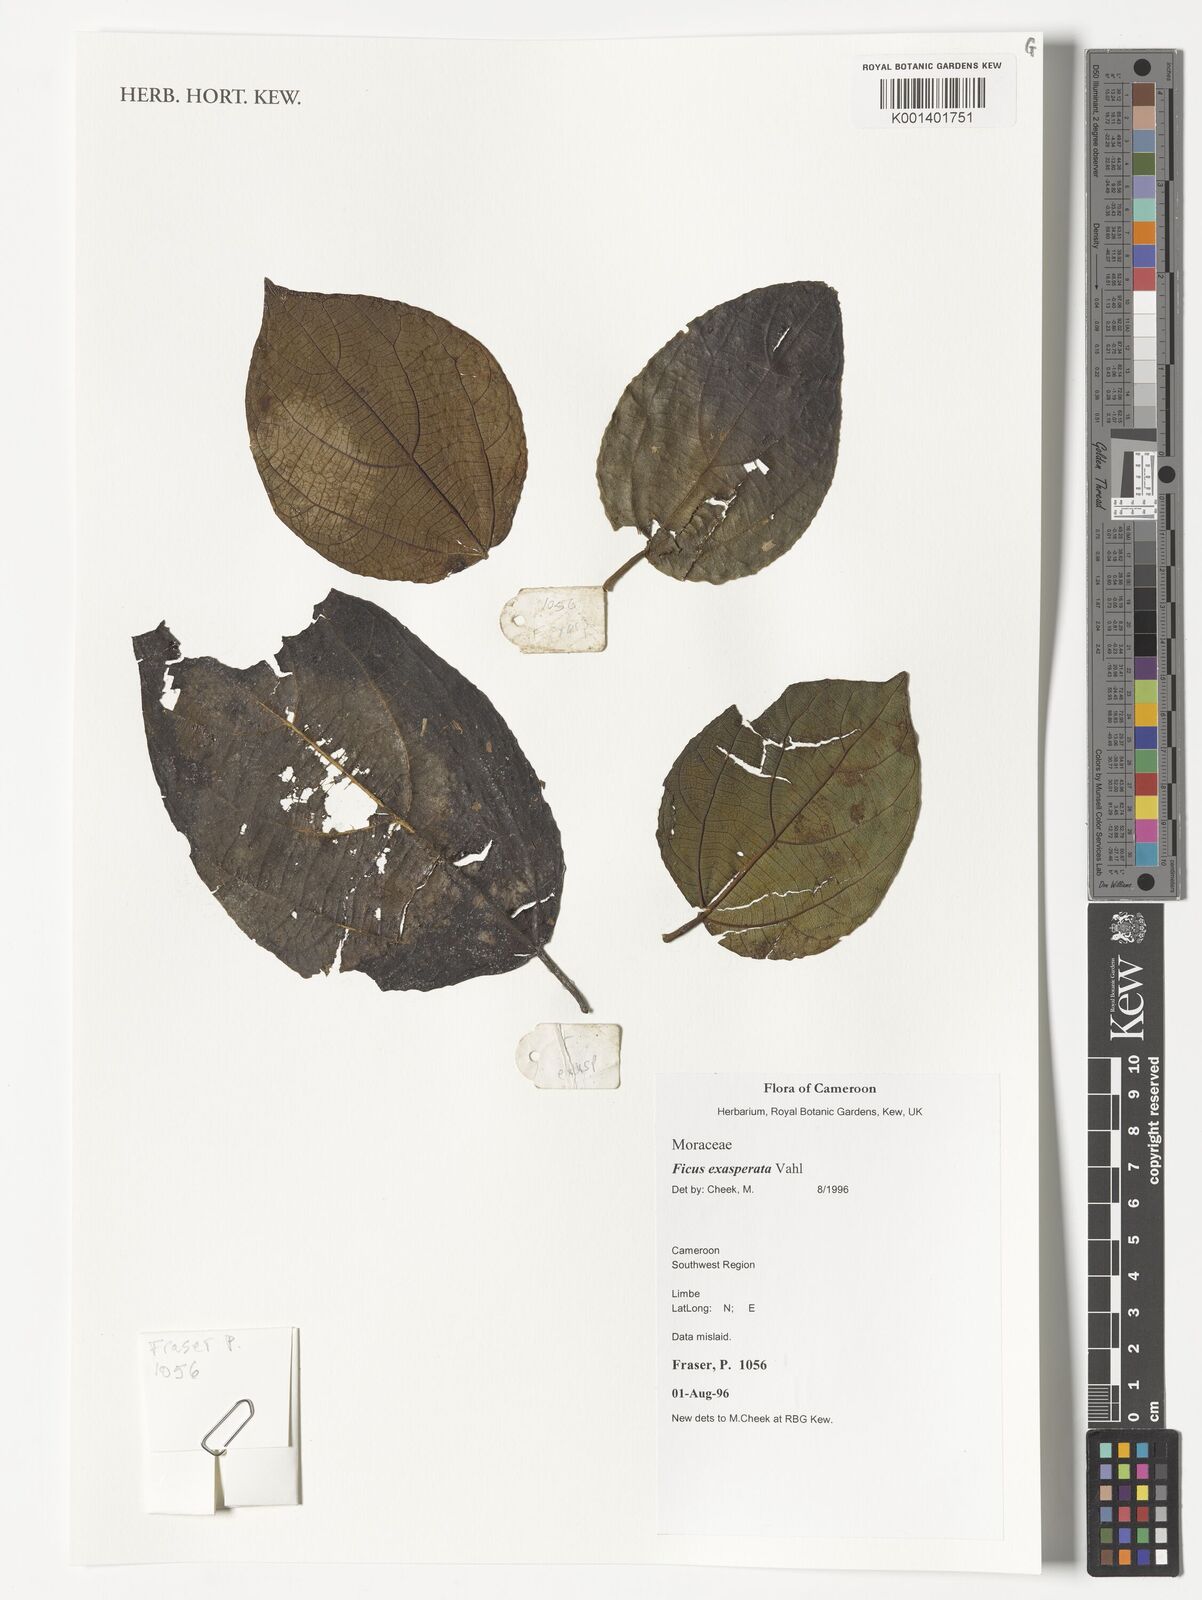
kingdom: Plantae
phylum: Tracheophyta
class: Magnoliopsida
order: Rosales
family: Moraceae
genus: Ficus
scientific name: Ficus exasperata
